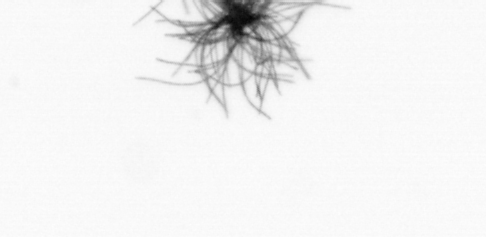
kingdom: Bacteria
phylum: Cyanobacteria
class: Cyanobacteriia
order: Cyanobacteriales
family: Microcoleaceae
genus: Trichodesmium
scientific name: Trichodesmium
